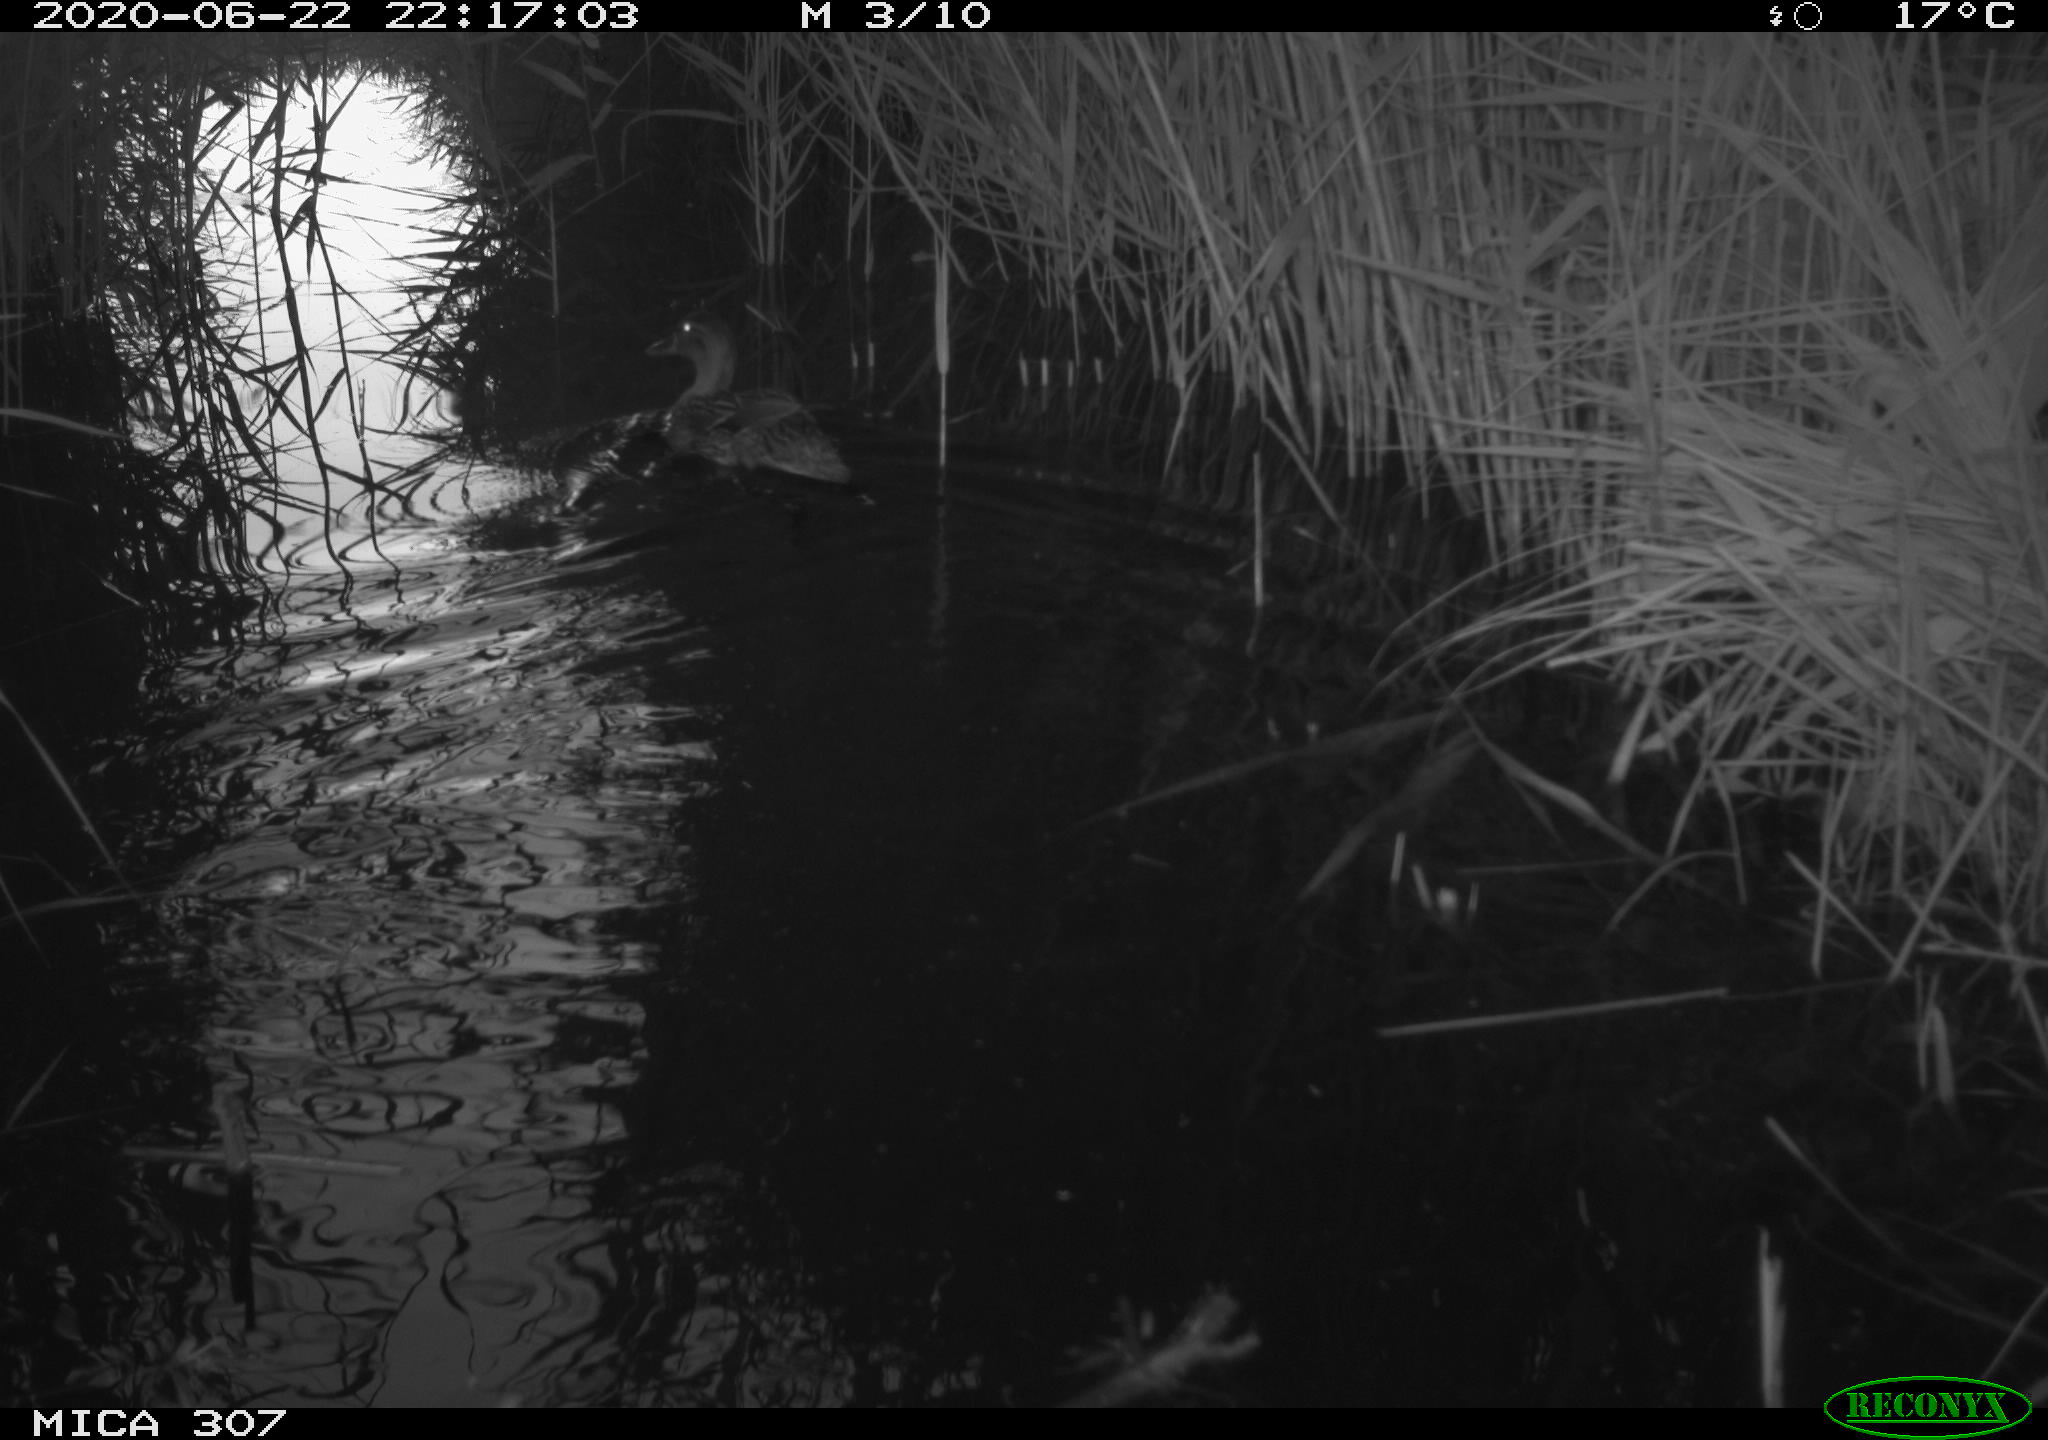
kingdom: Animalia
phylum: Chordata
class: Aves
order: Anseriformes
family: Anatidae
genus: Anas
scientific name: Anas platyrhynchos
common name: Mallard
